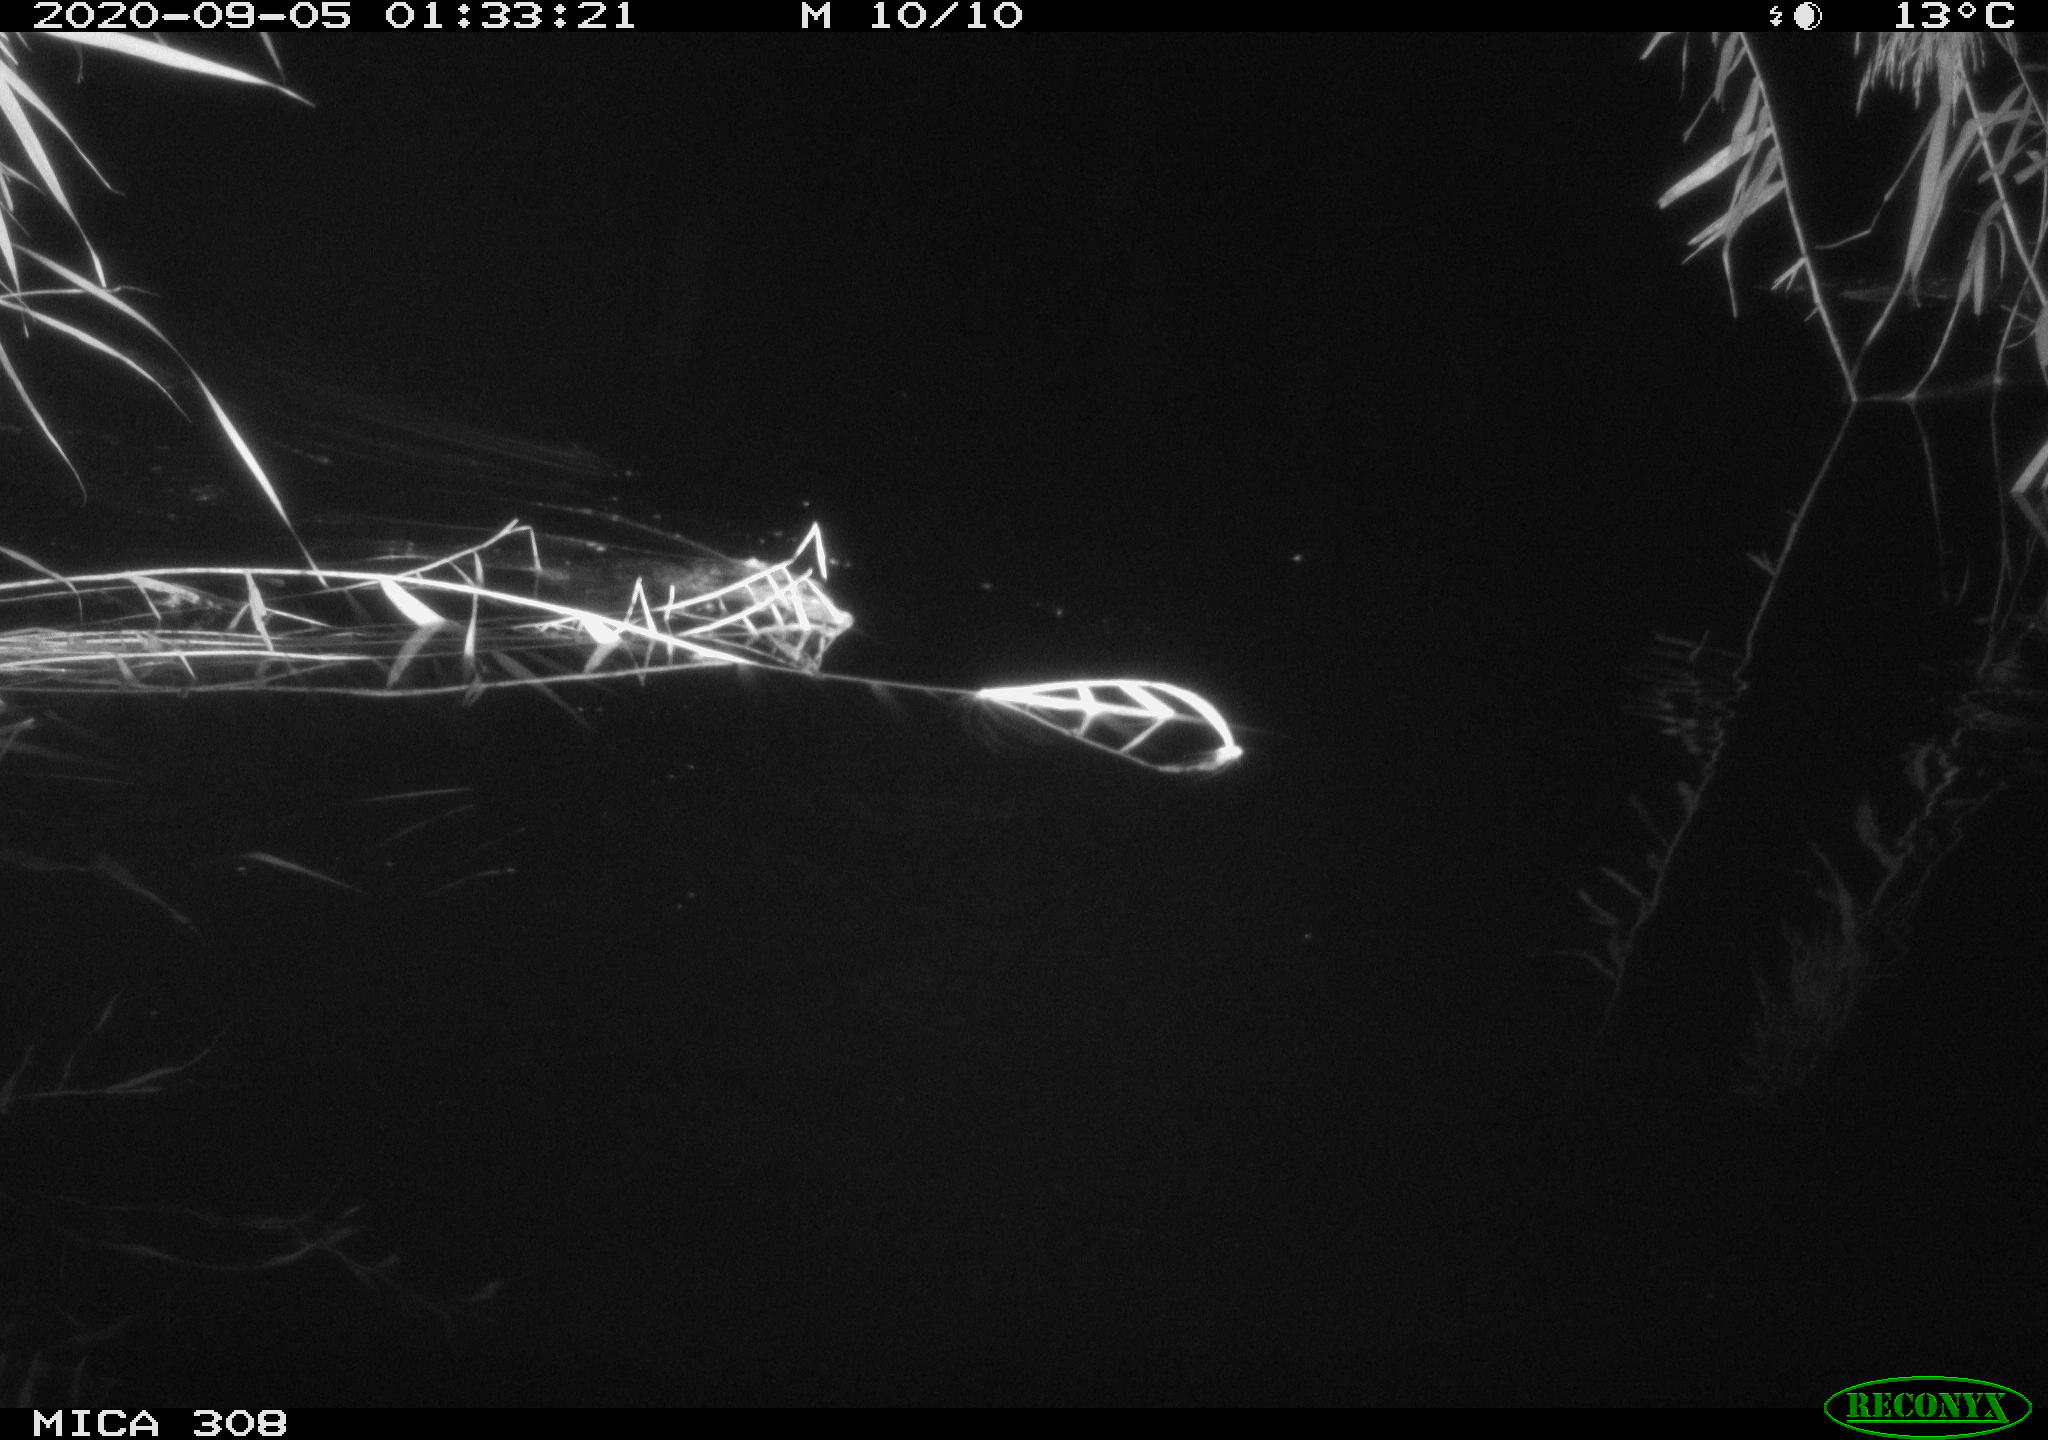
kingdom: Animalia
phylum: Chordata
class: Mammalia
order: Rodentia
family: Muridae
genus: Rattus
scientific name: Rattus norvegicus
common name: Brown rat
